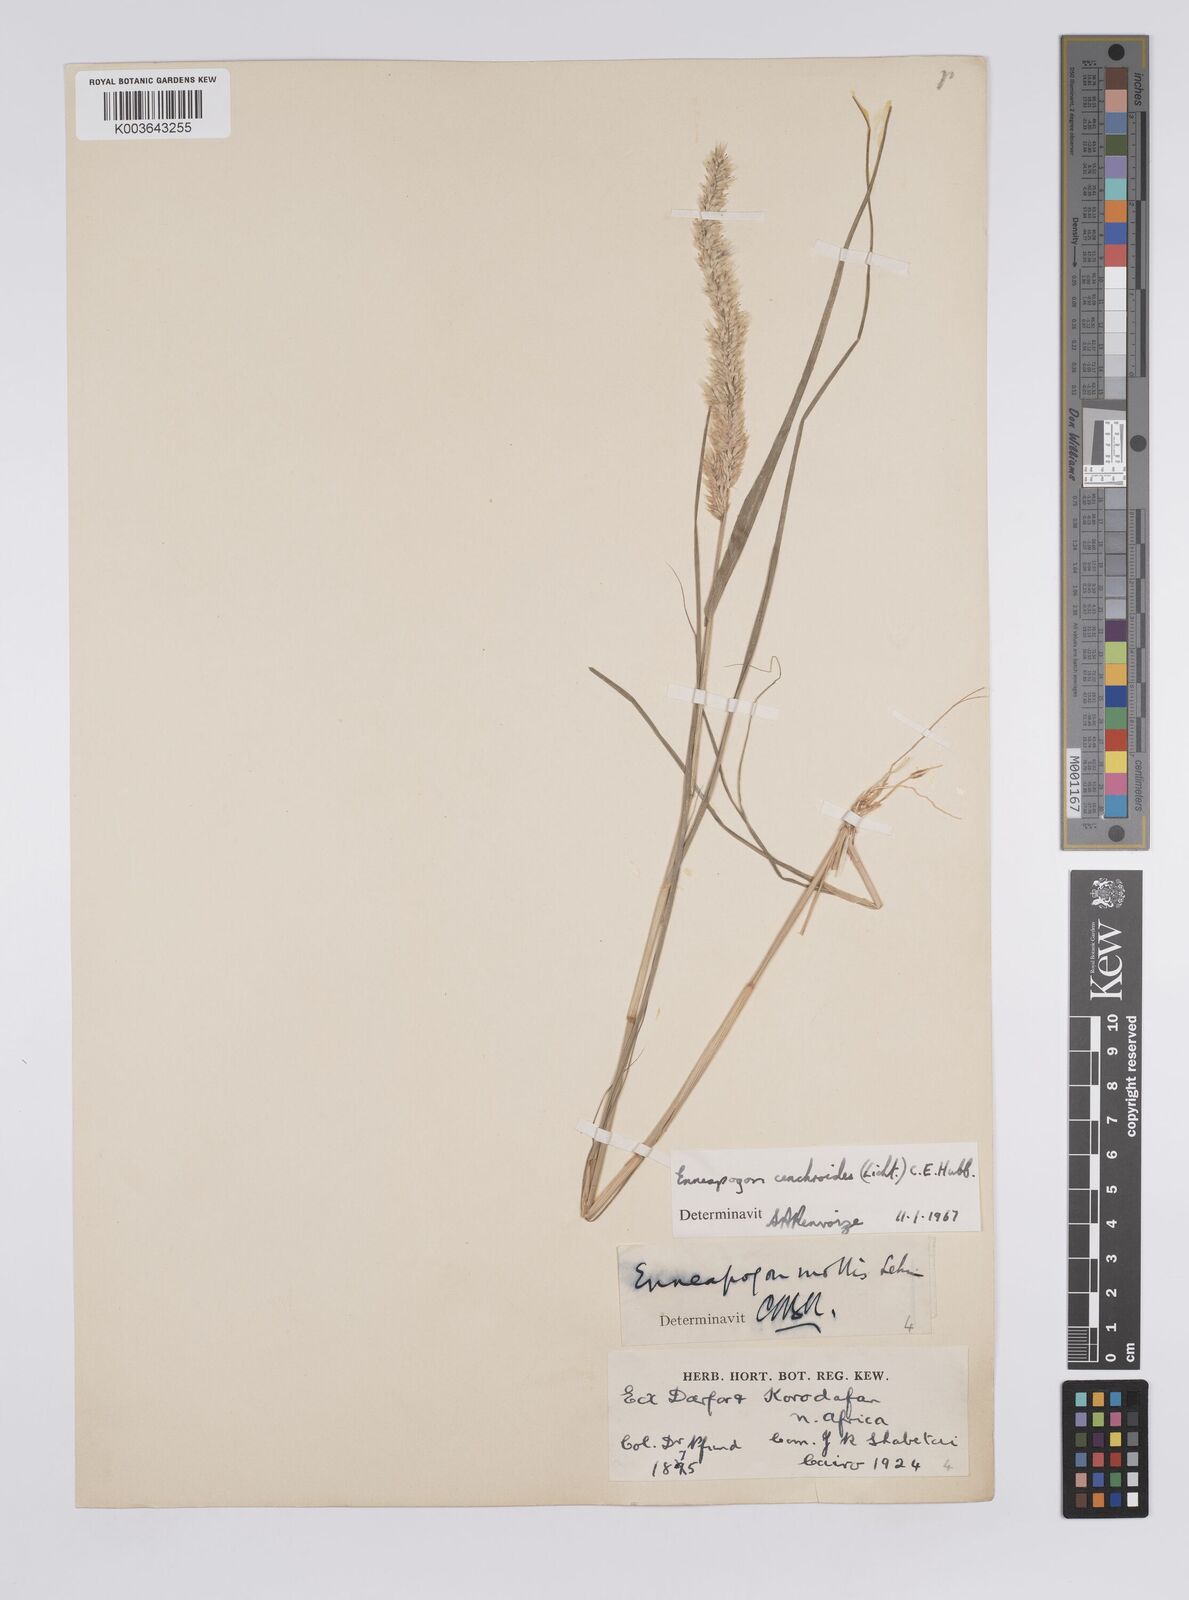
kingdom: Plantae
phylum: Tracheophyta
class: Liliopsida
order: Poales
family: Poaceae
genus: Enneapogon
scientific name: Enneapogon cenchroides
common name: Soft feather pappusgrass
